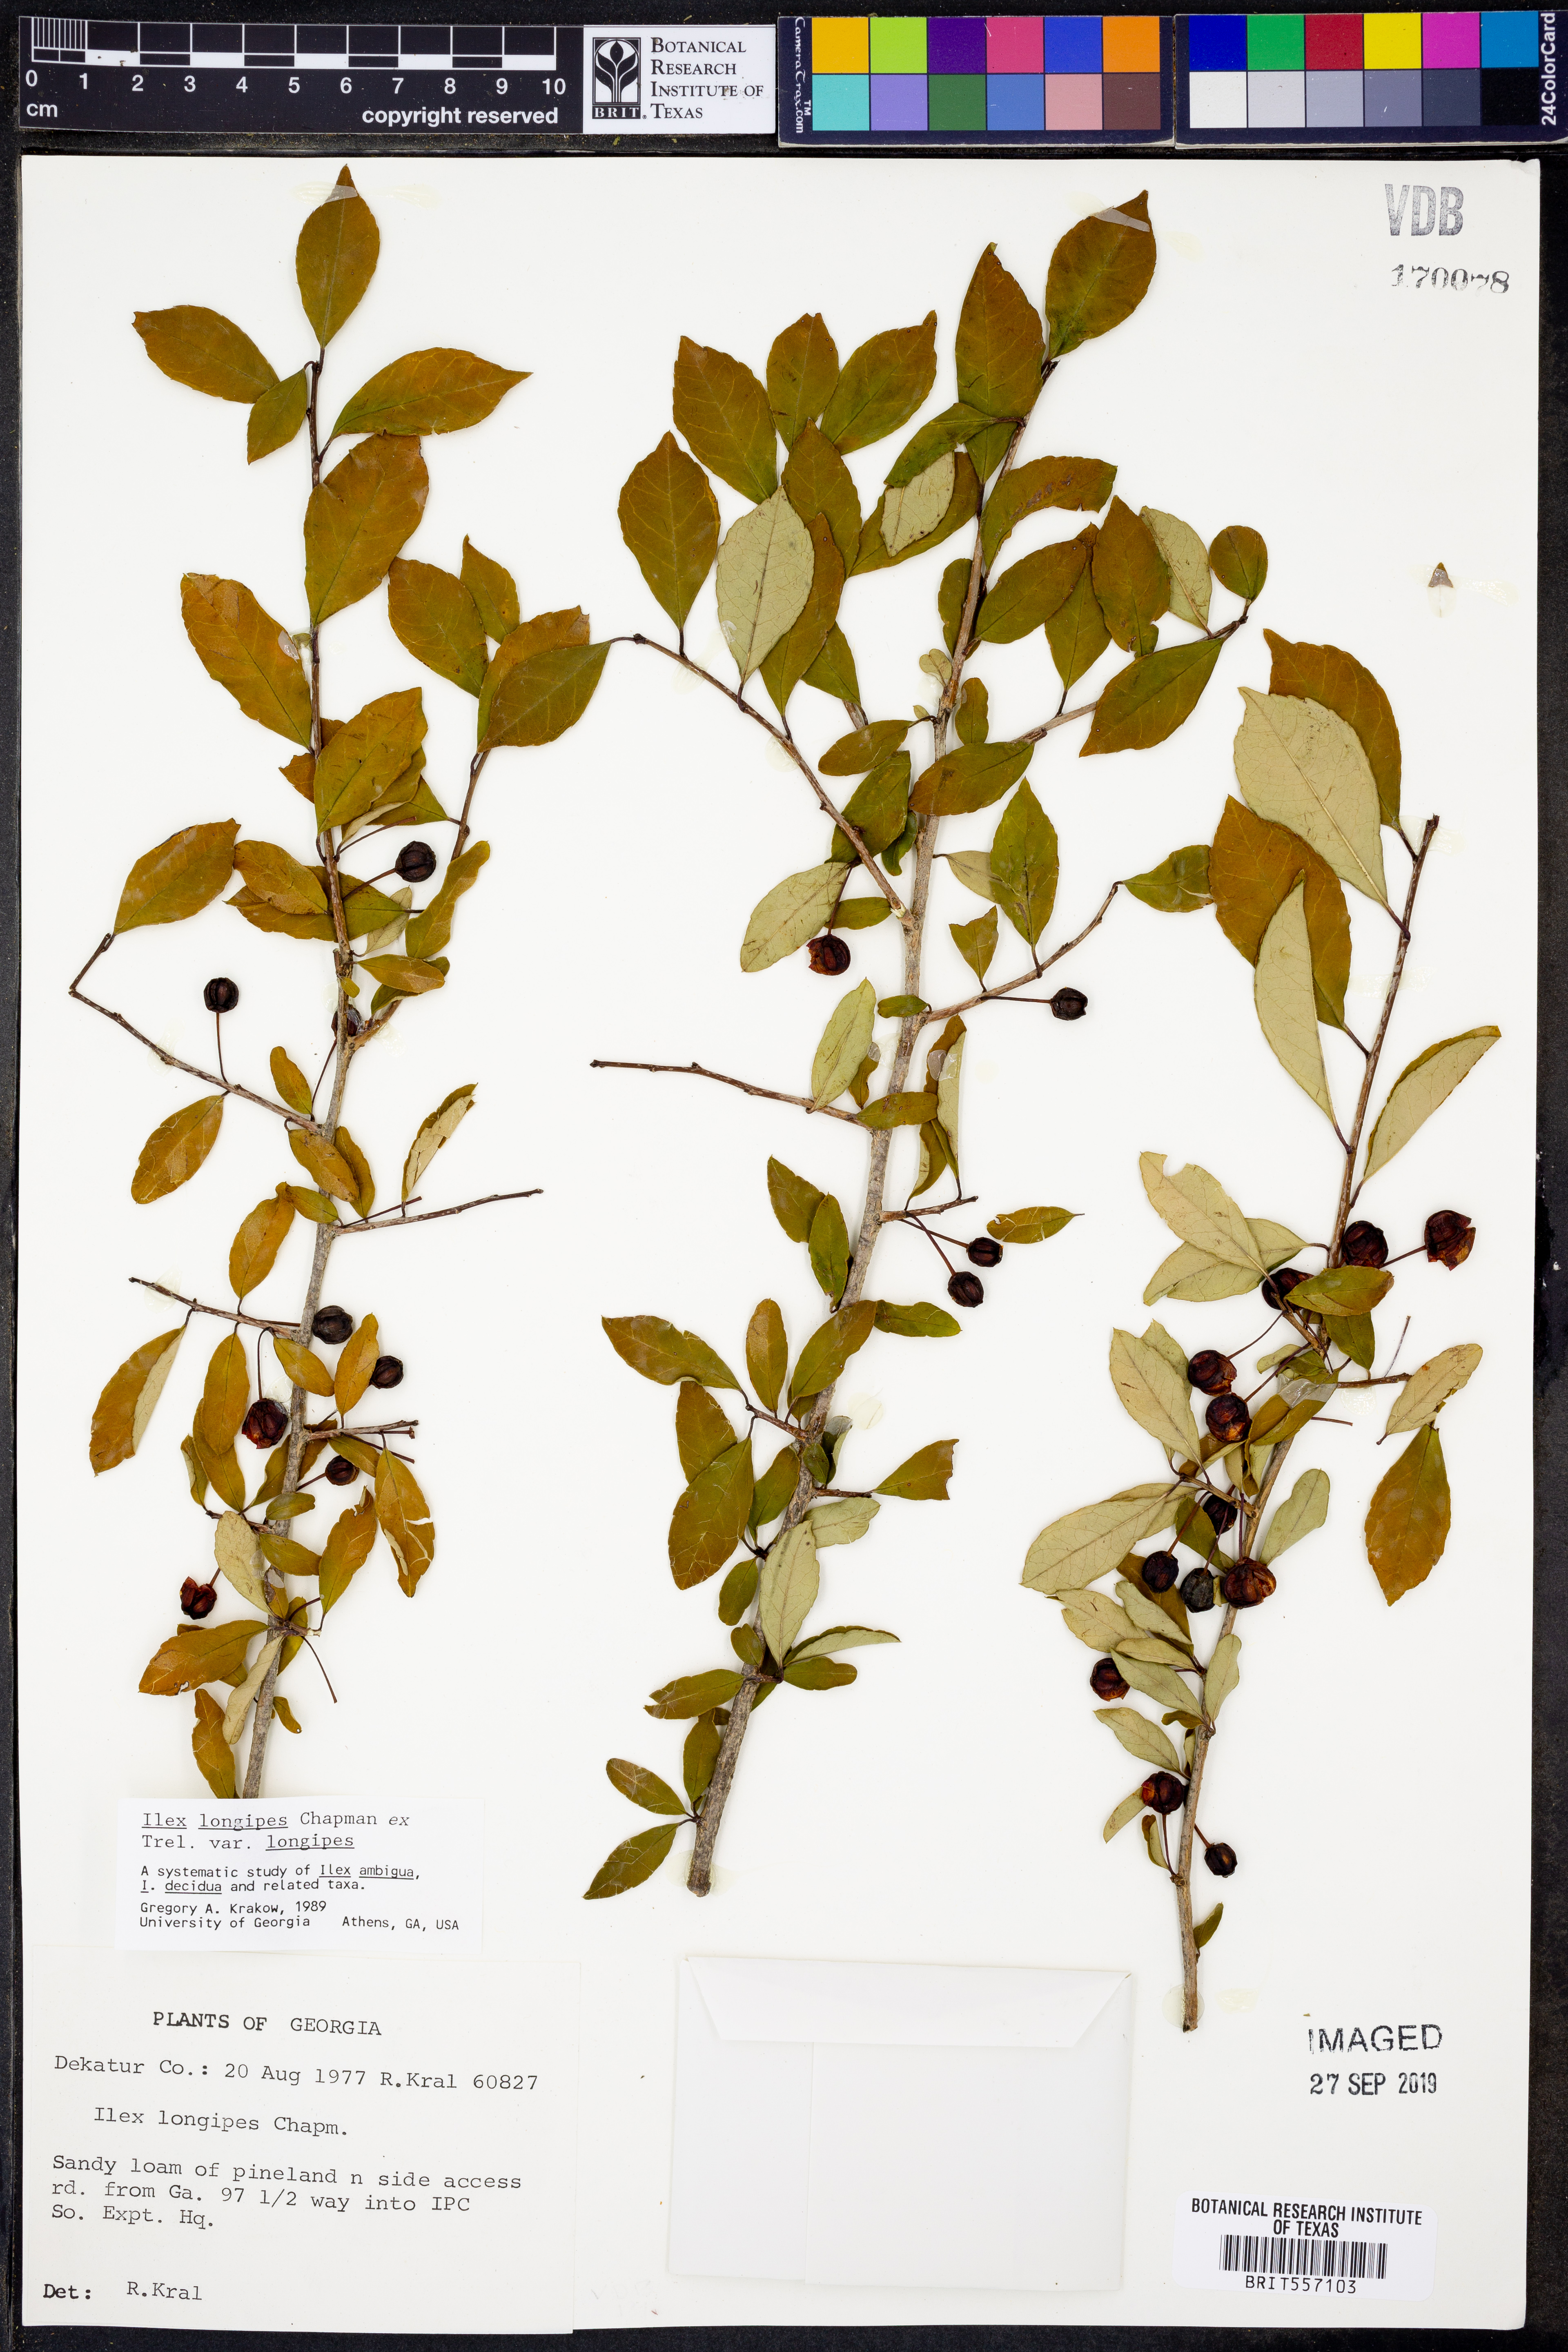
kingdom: Plantae
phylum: Tracheophyta
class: Magnoliopsida
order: Aquifoliales
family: Aquifoliaceae
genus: Ilex
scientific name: Ilex longipes
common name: Georgia holly
